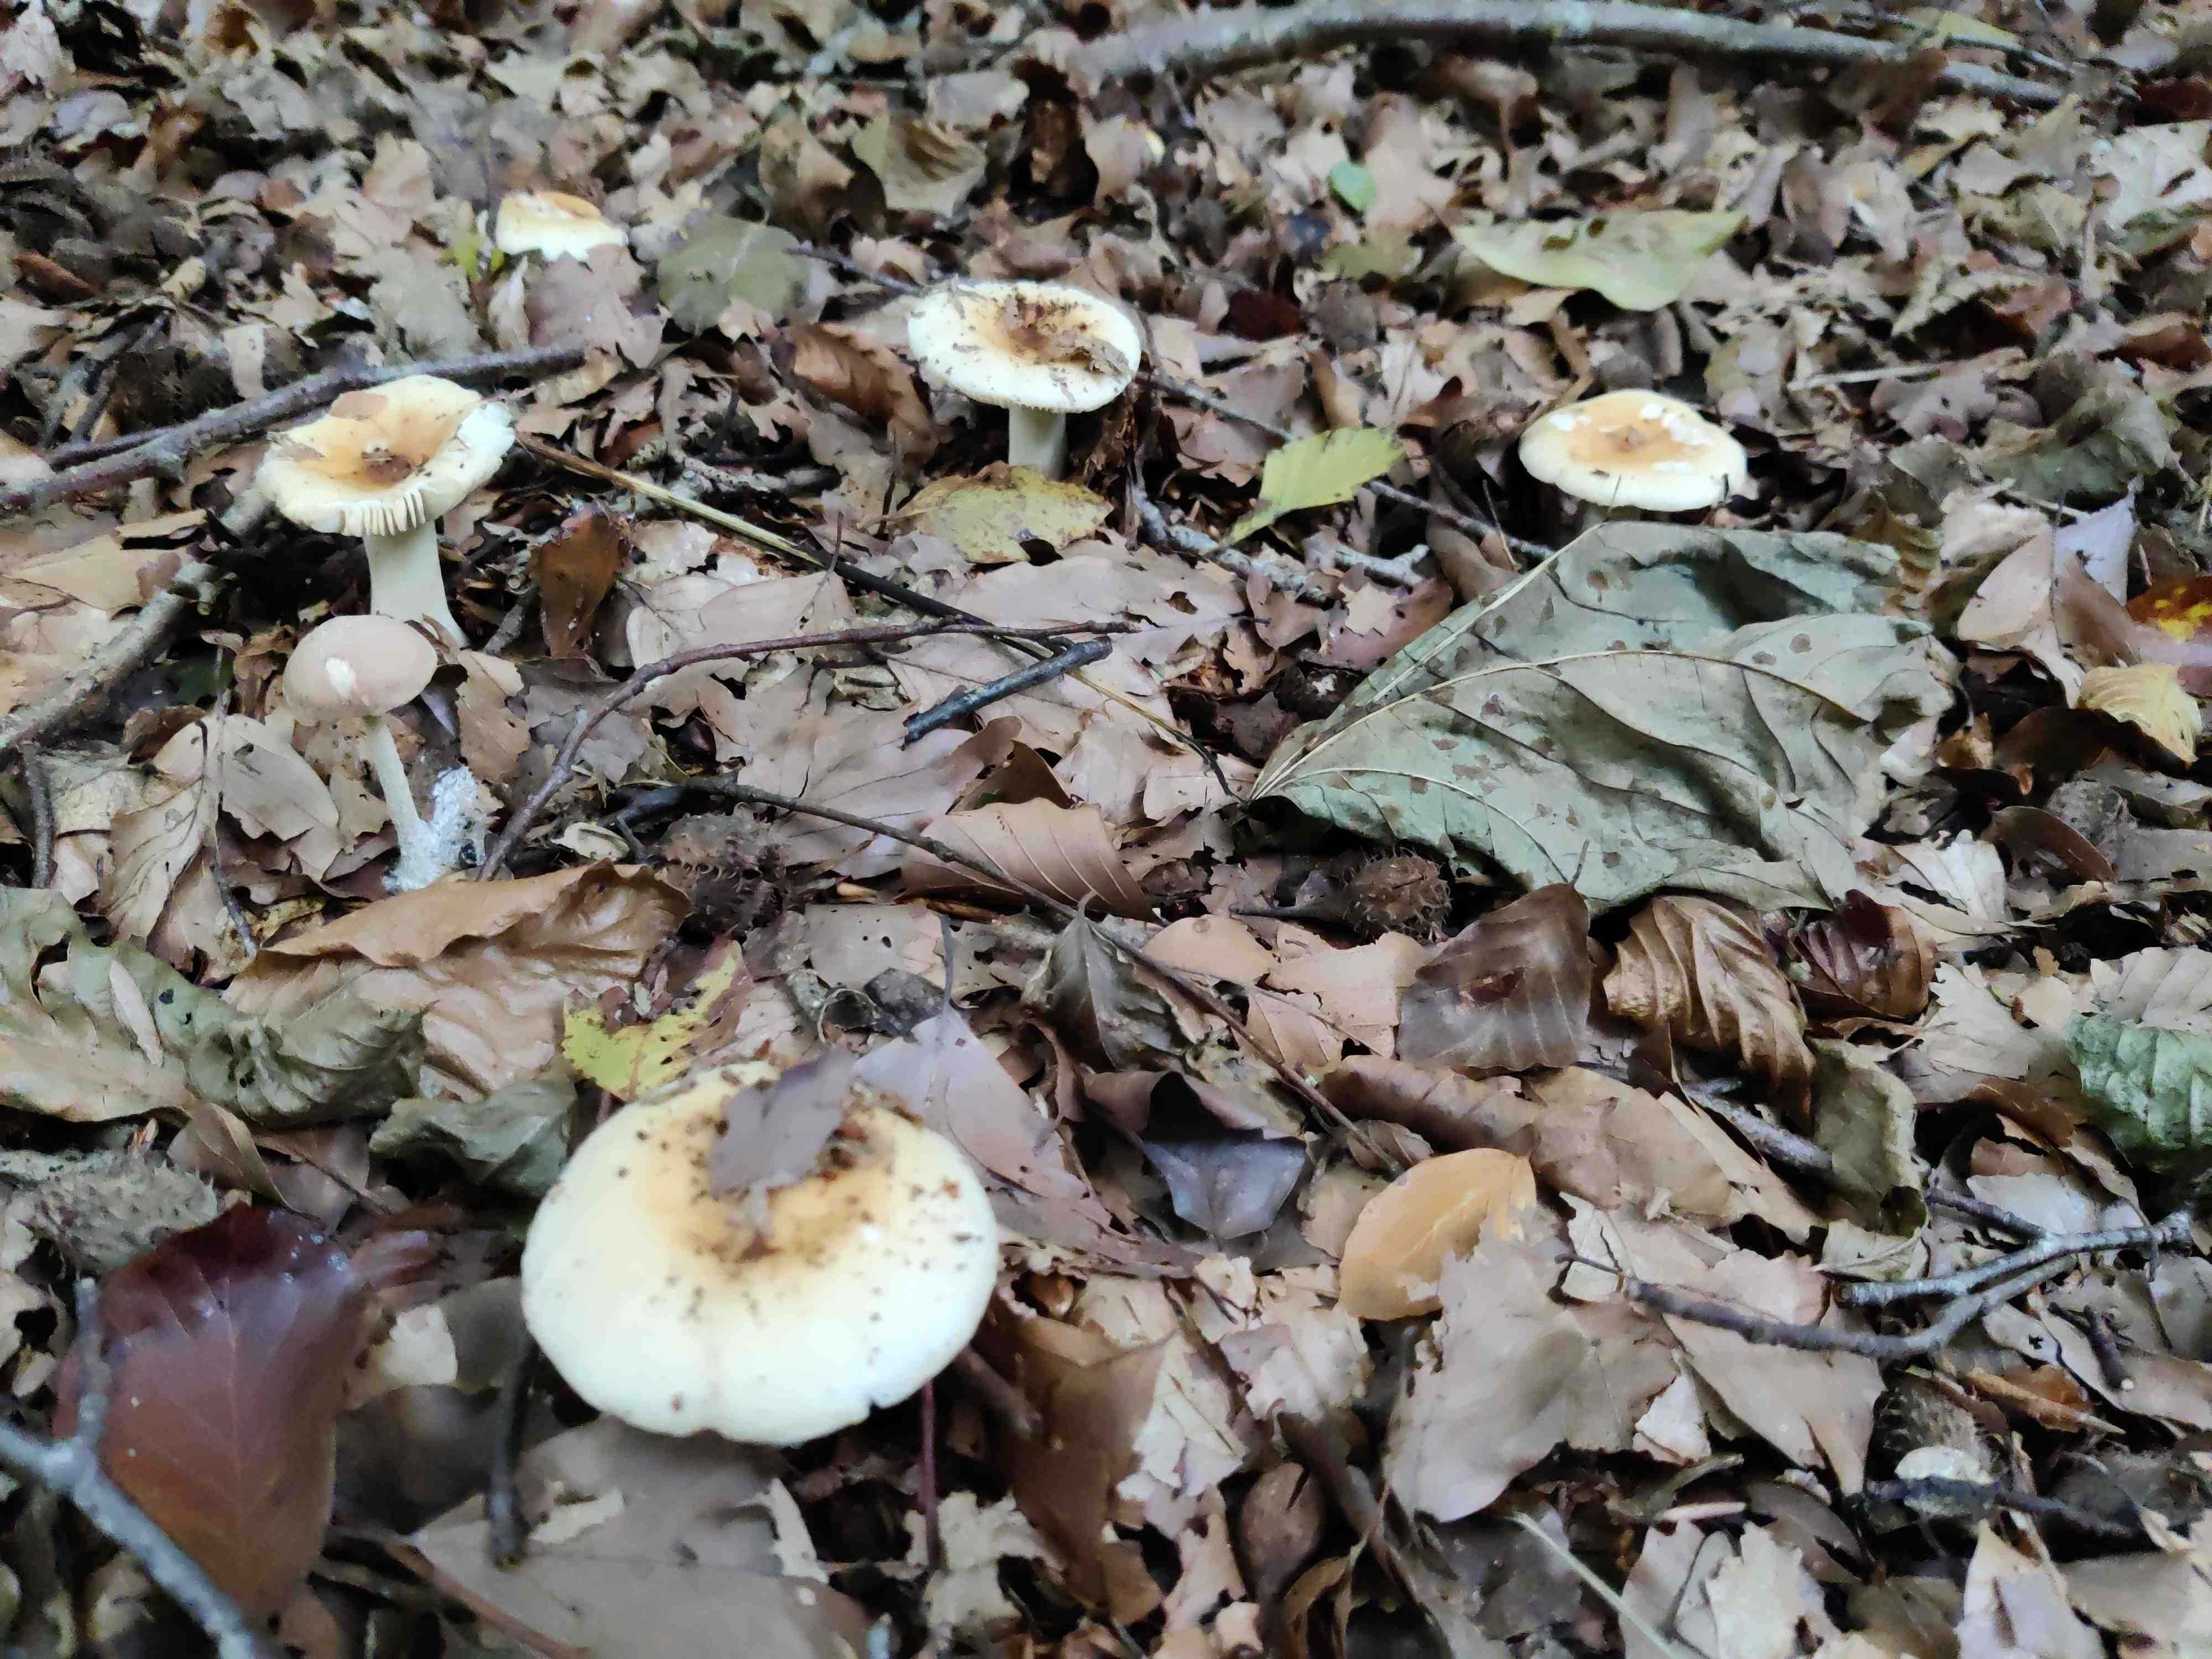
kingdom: Fungi
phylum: Basidiomycota
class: Agaricomycetes
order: Russulales
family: Russulaceae
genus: Russula
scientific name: Russula fellea
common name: galde-skørhat
